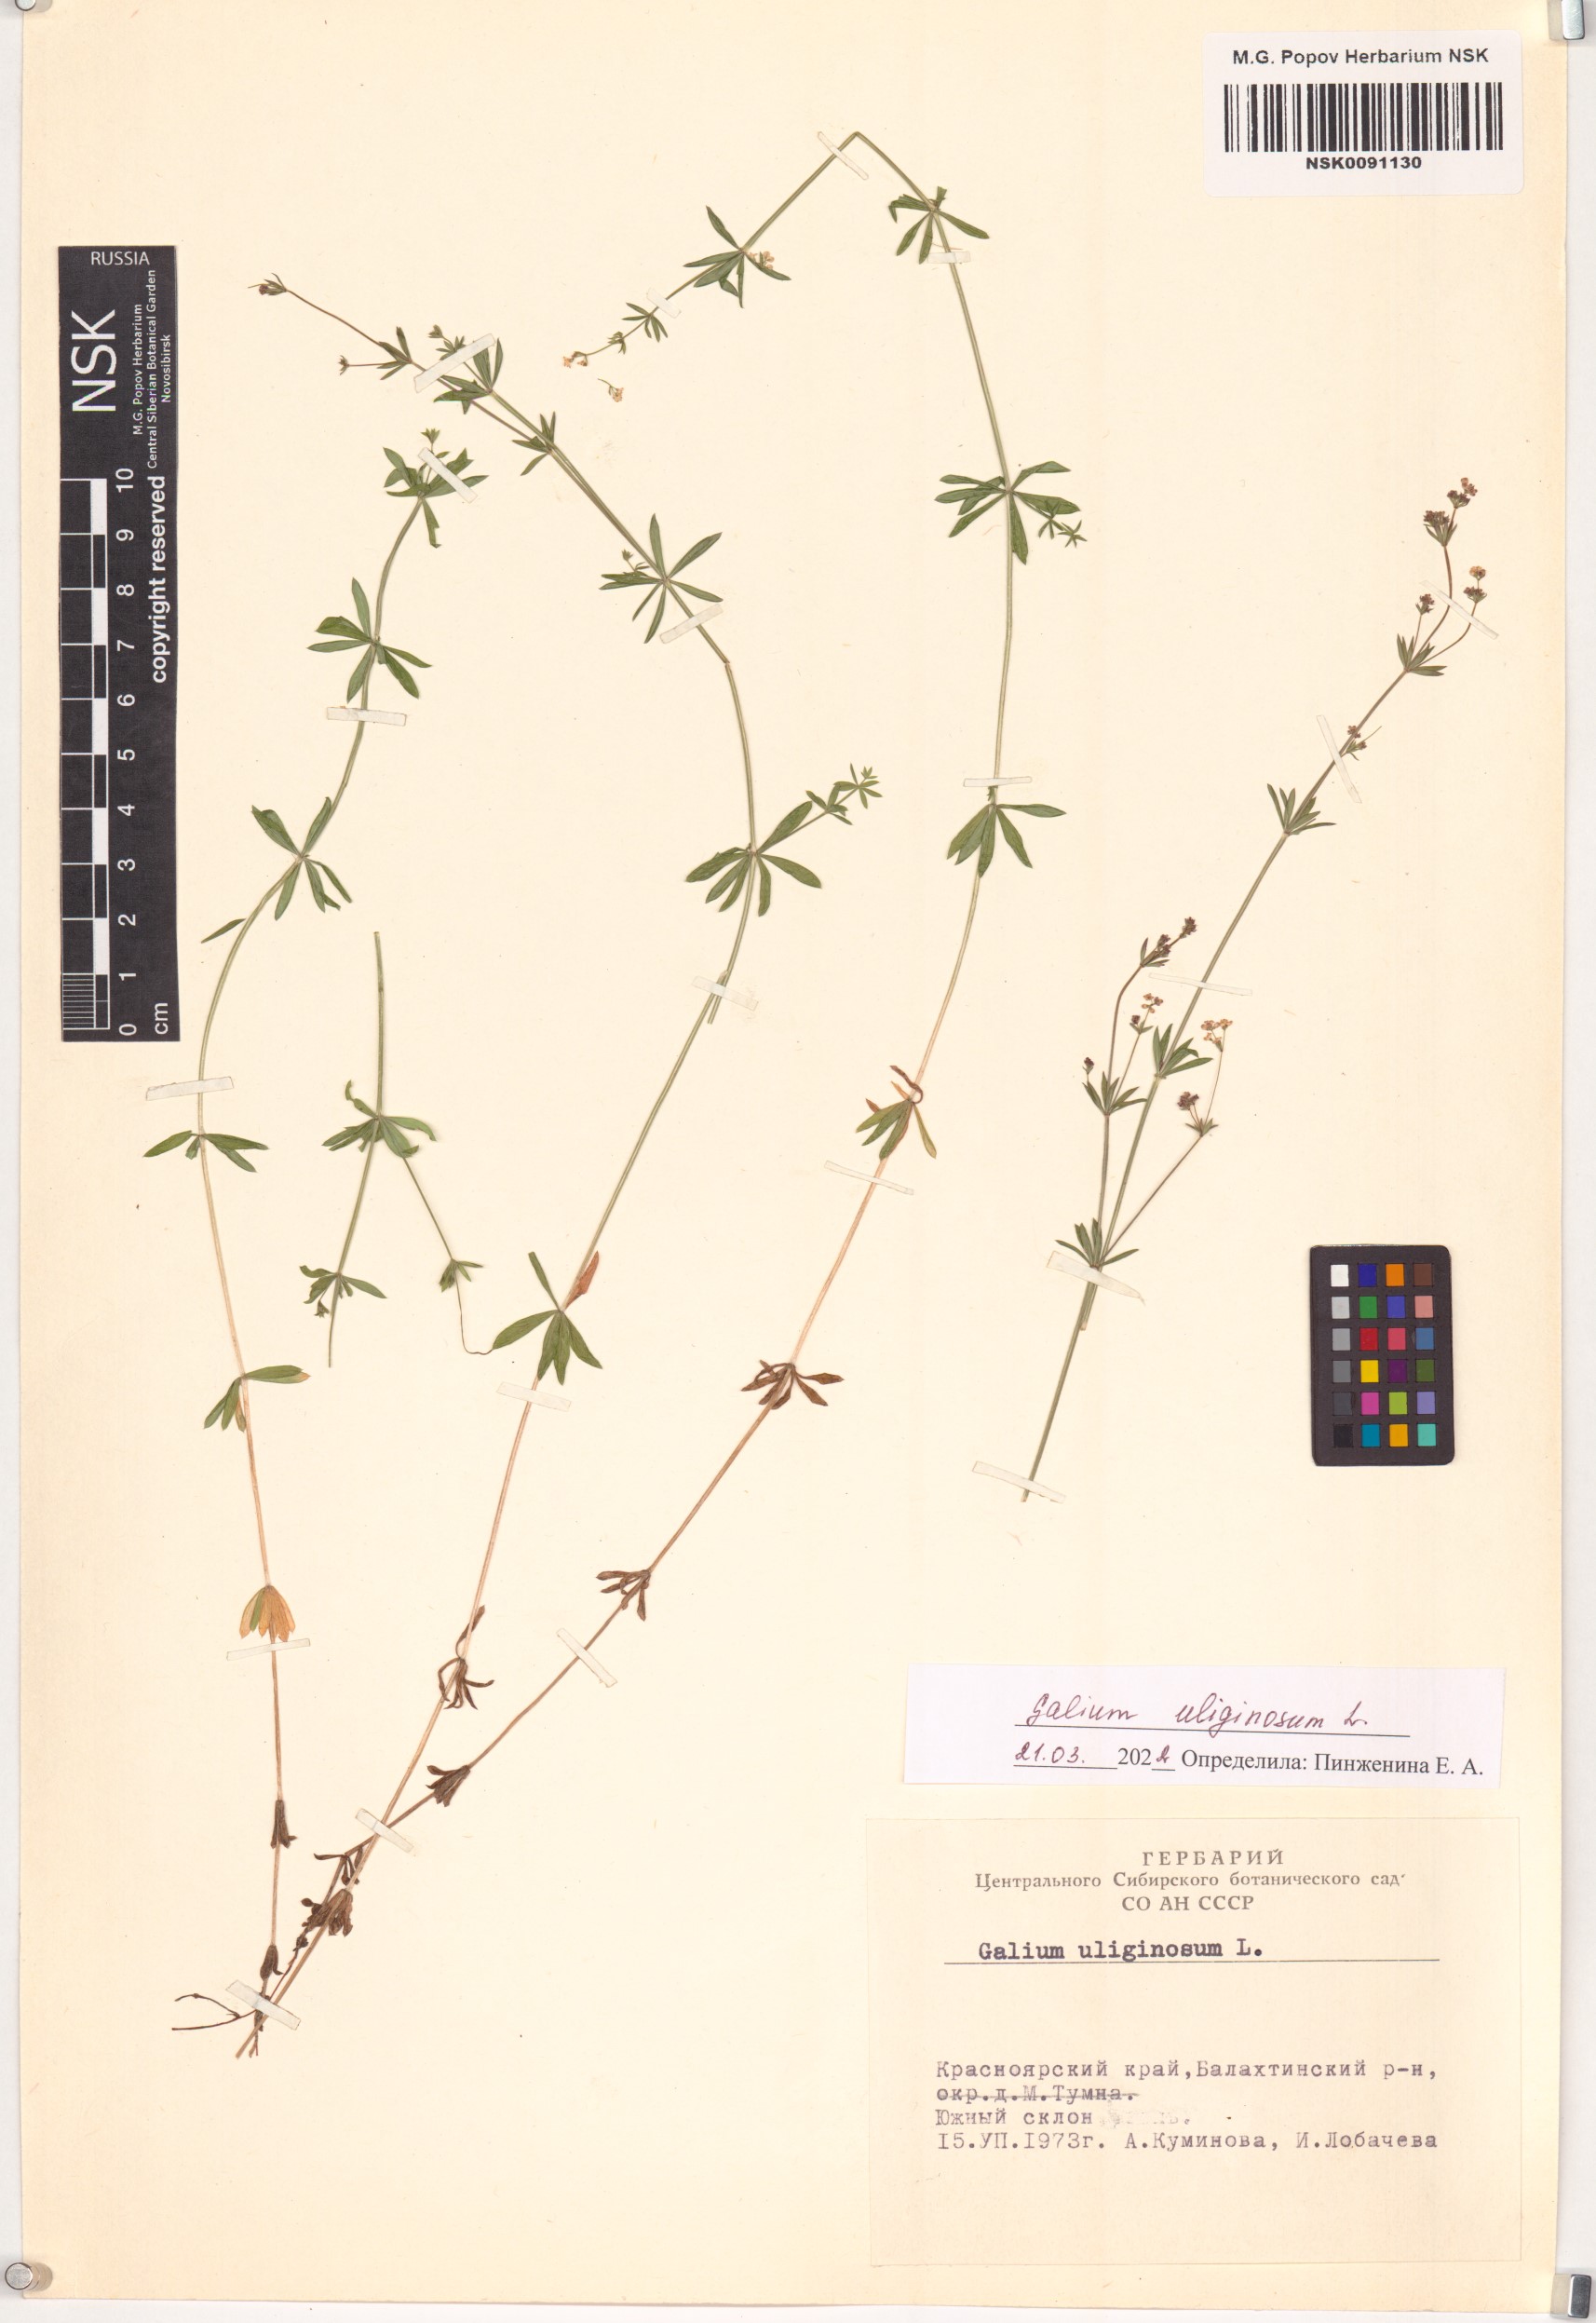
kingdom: Plantae
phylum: Tracheophyta
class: Magnoliopsida
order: Gentianales
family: Rubiaceae
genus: Galium
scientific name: Galium uliginosum
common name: Fen bedstraw
